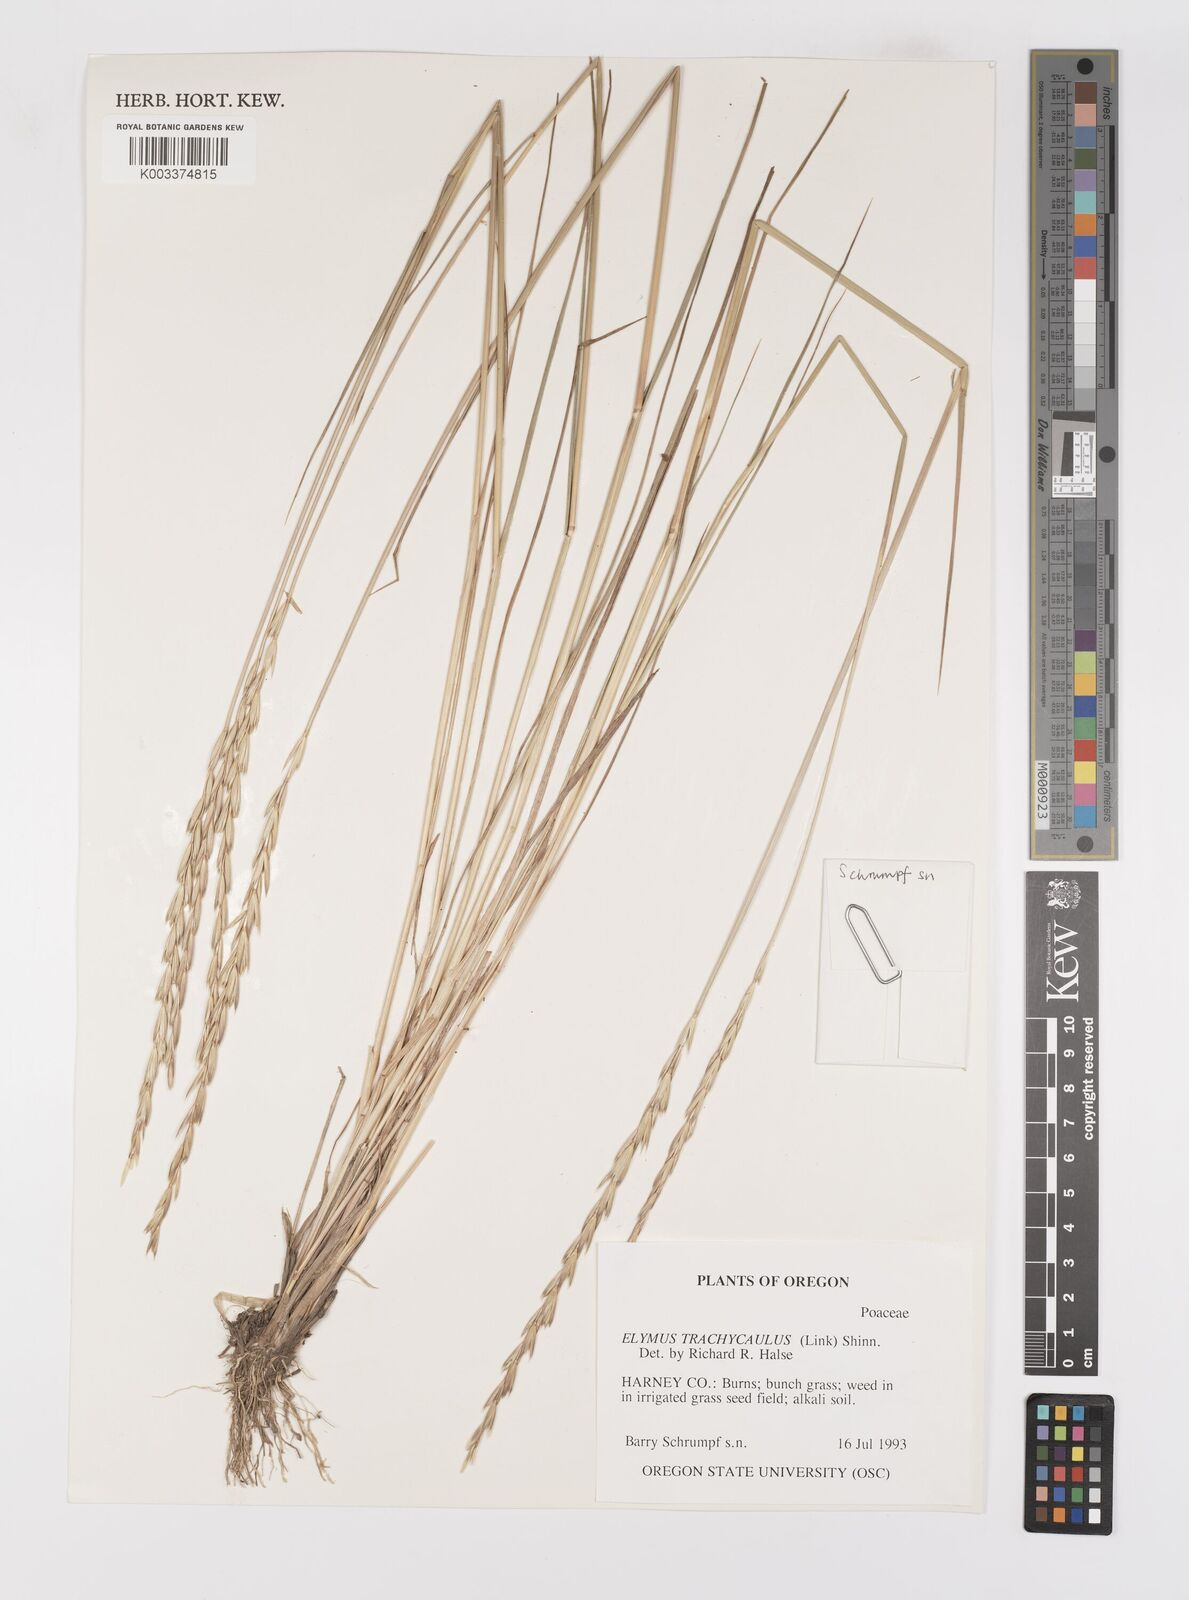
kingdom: Plantae
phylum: Tracheophyta
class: Liliopsida
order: Poales
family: Poaceae
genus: Elymus
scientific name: Elymus violaceus
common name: Arctic wheatgrass
